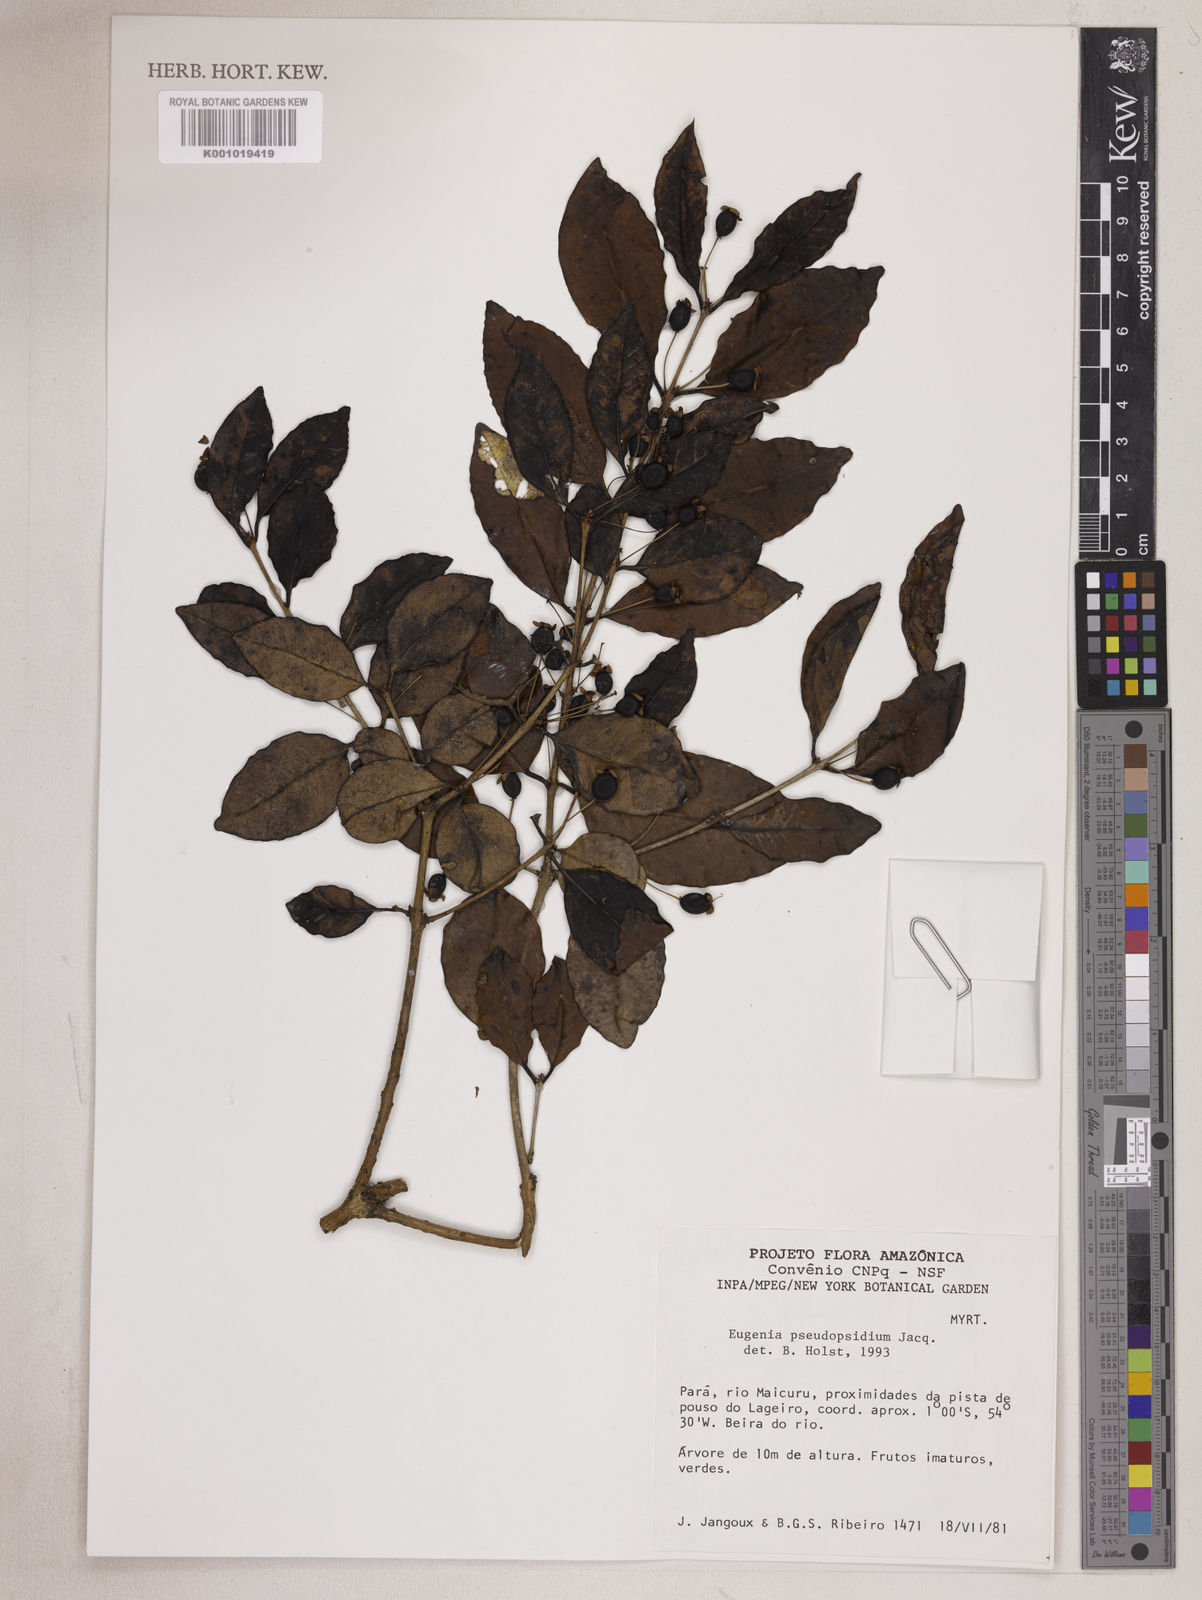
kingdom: Plantae
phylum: Tracheophyta
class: Magnoliopsida
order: Myrtales
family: Myrtaceae
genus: Eugenia
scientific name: Eugenia pseudopsidium
